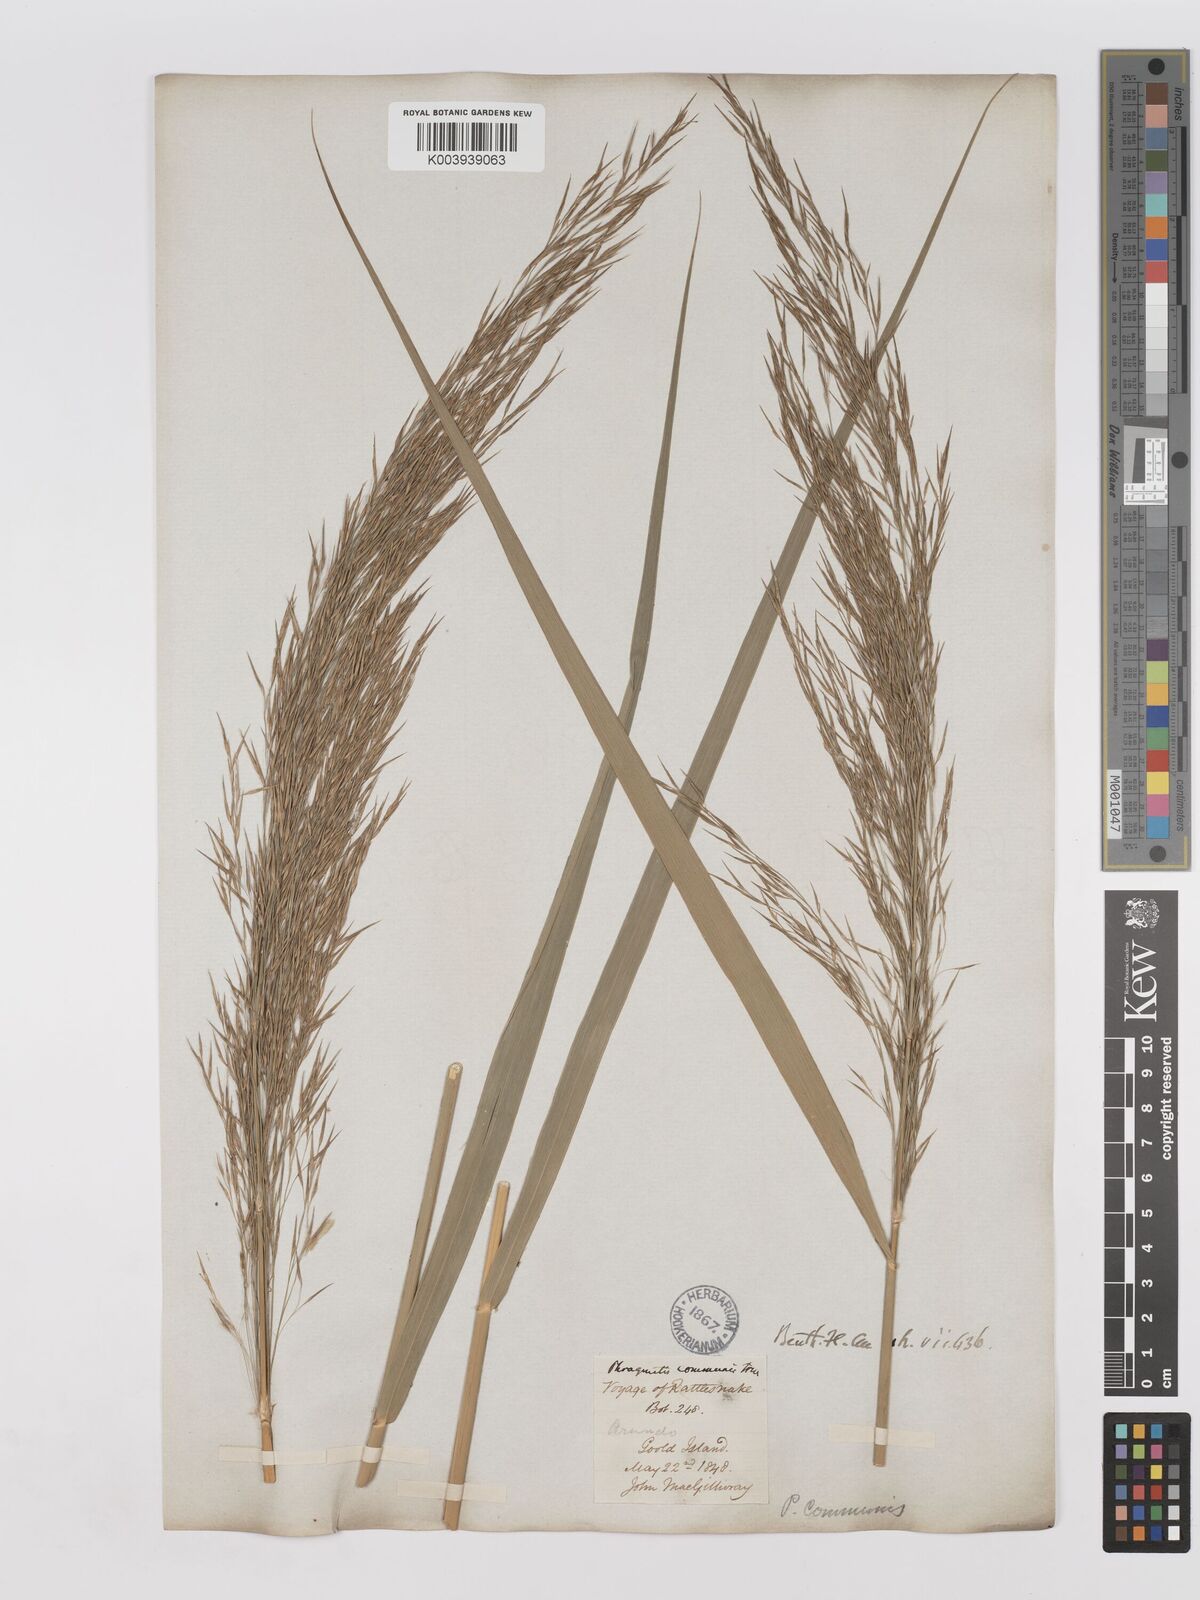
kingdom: Plantae
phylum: Tracheophyta
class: Liliopsida
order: Poales
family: Poaceae
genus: Phragmites
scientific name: Phragmites karka
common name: Tropical reed
